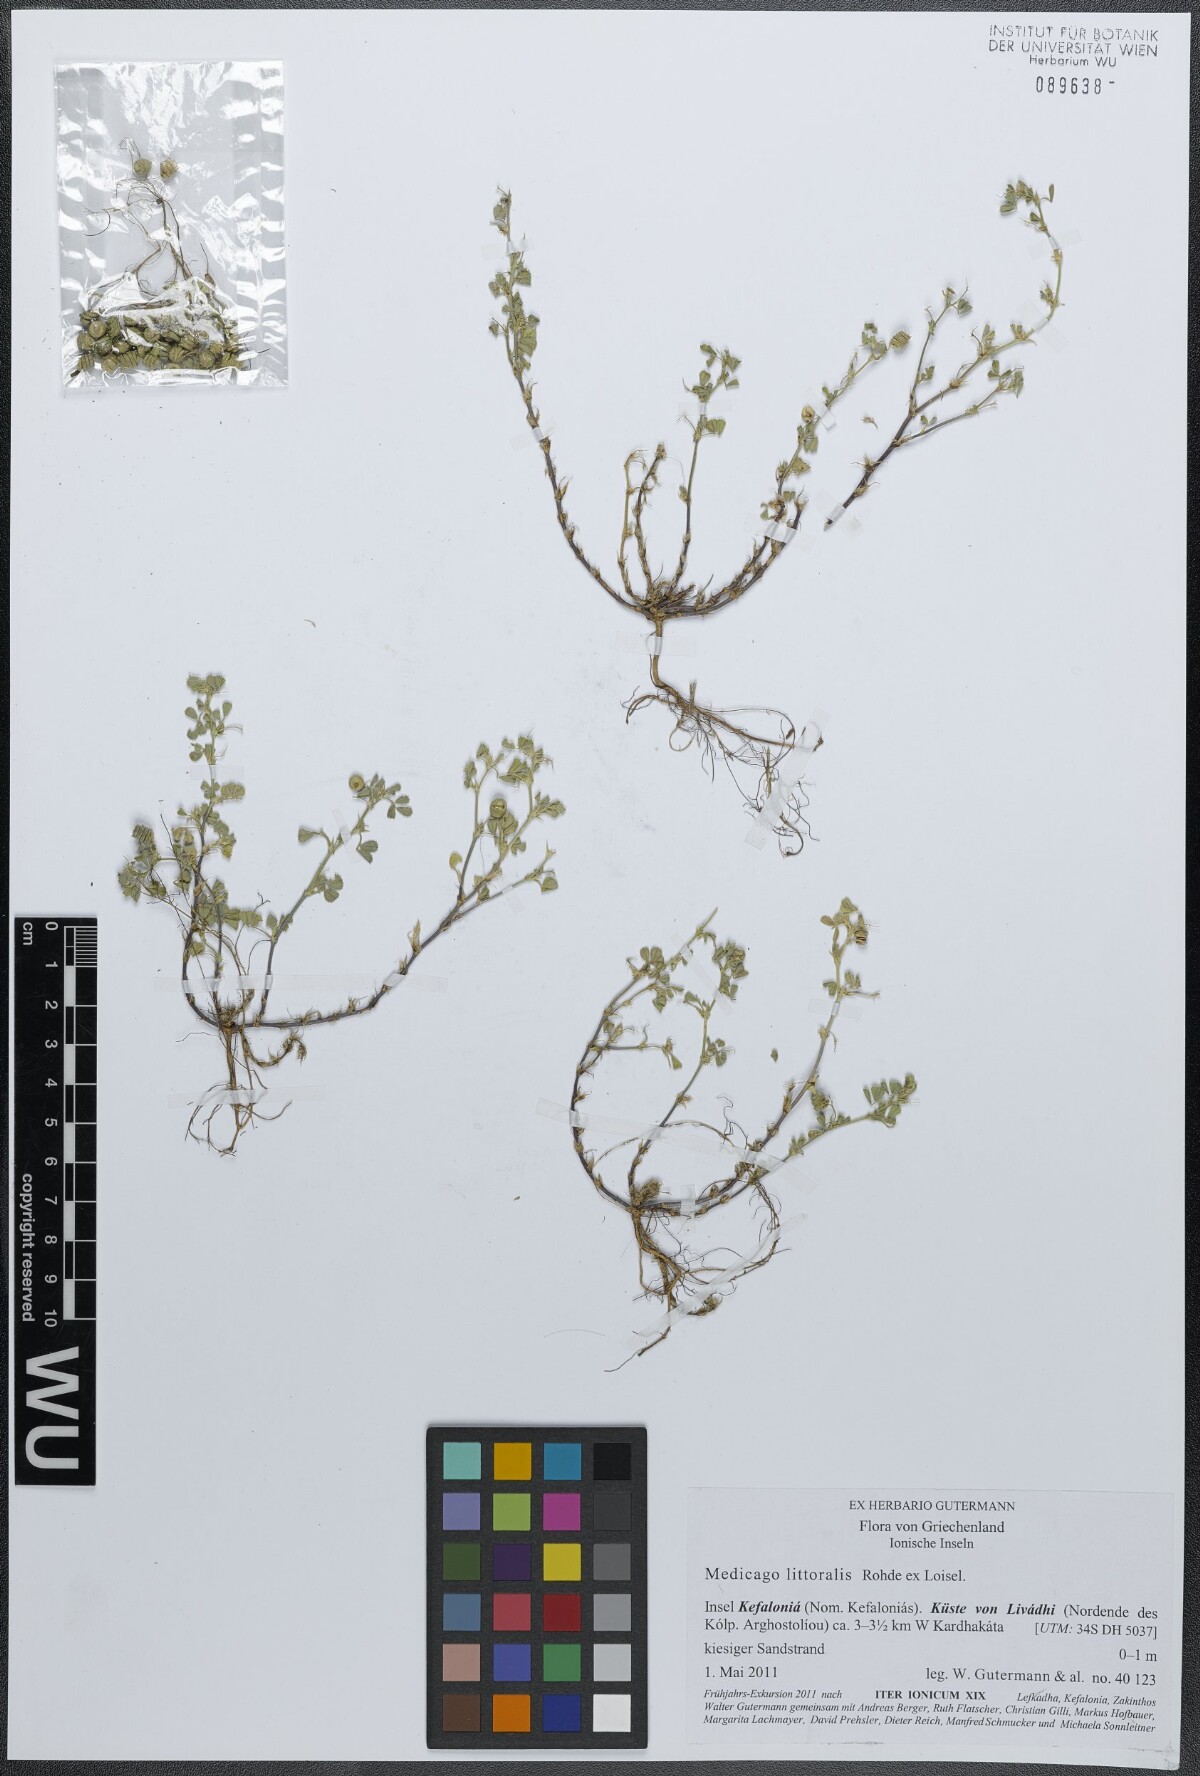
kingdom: Plantae
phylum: Tracheophyta
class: Magnoliopsida
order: Fabales
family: Fabaceae
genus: Medicago
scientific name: Medicago littoralis
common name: Shore medick
